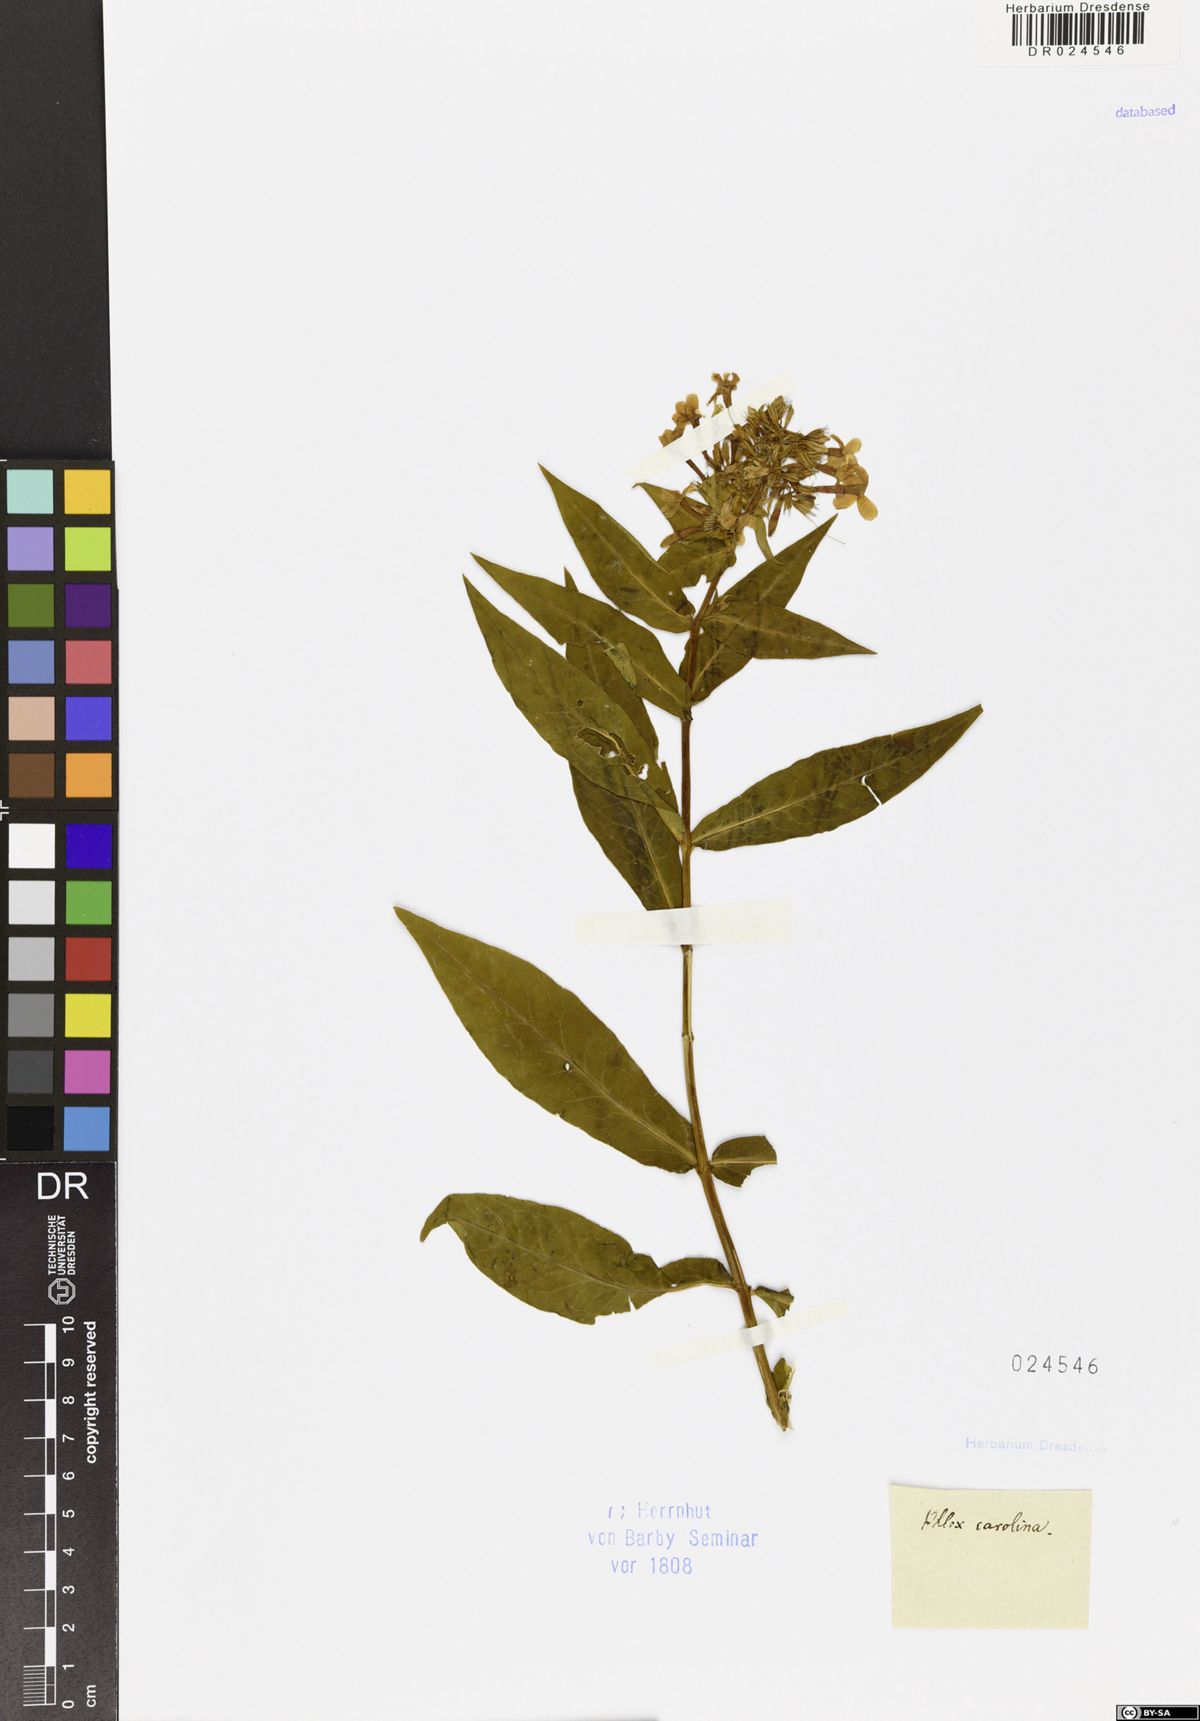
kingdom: Plantae
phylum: Tracheophyta
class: Magnoliopsida
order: Ericales
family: Polemoniaceae
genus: Phlox
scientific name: Phlox carolina
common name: Thick-leaf phlox
